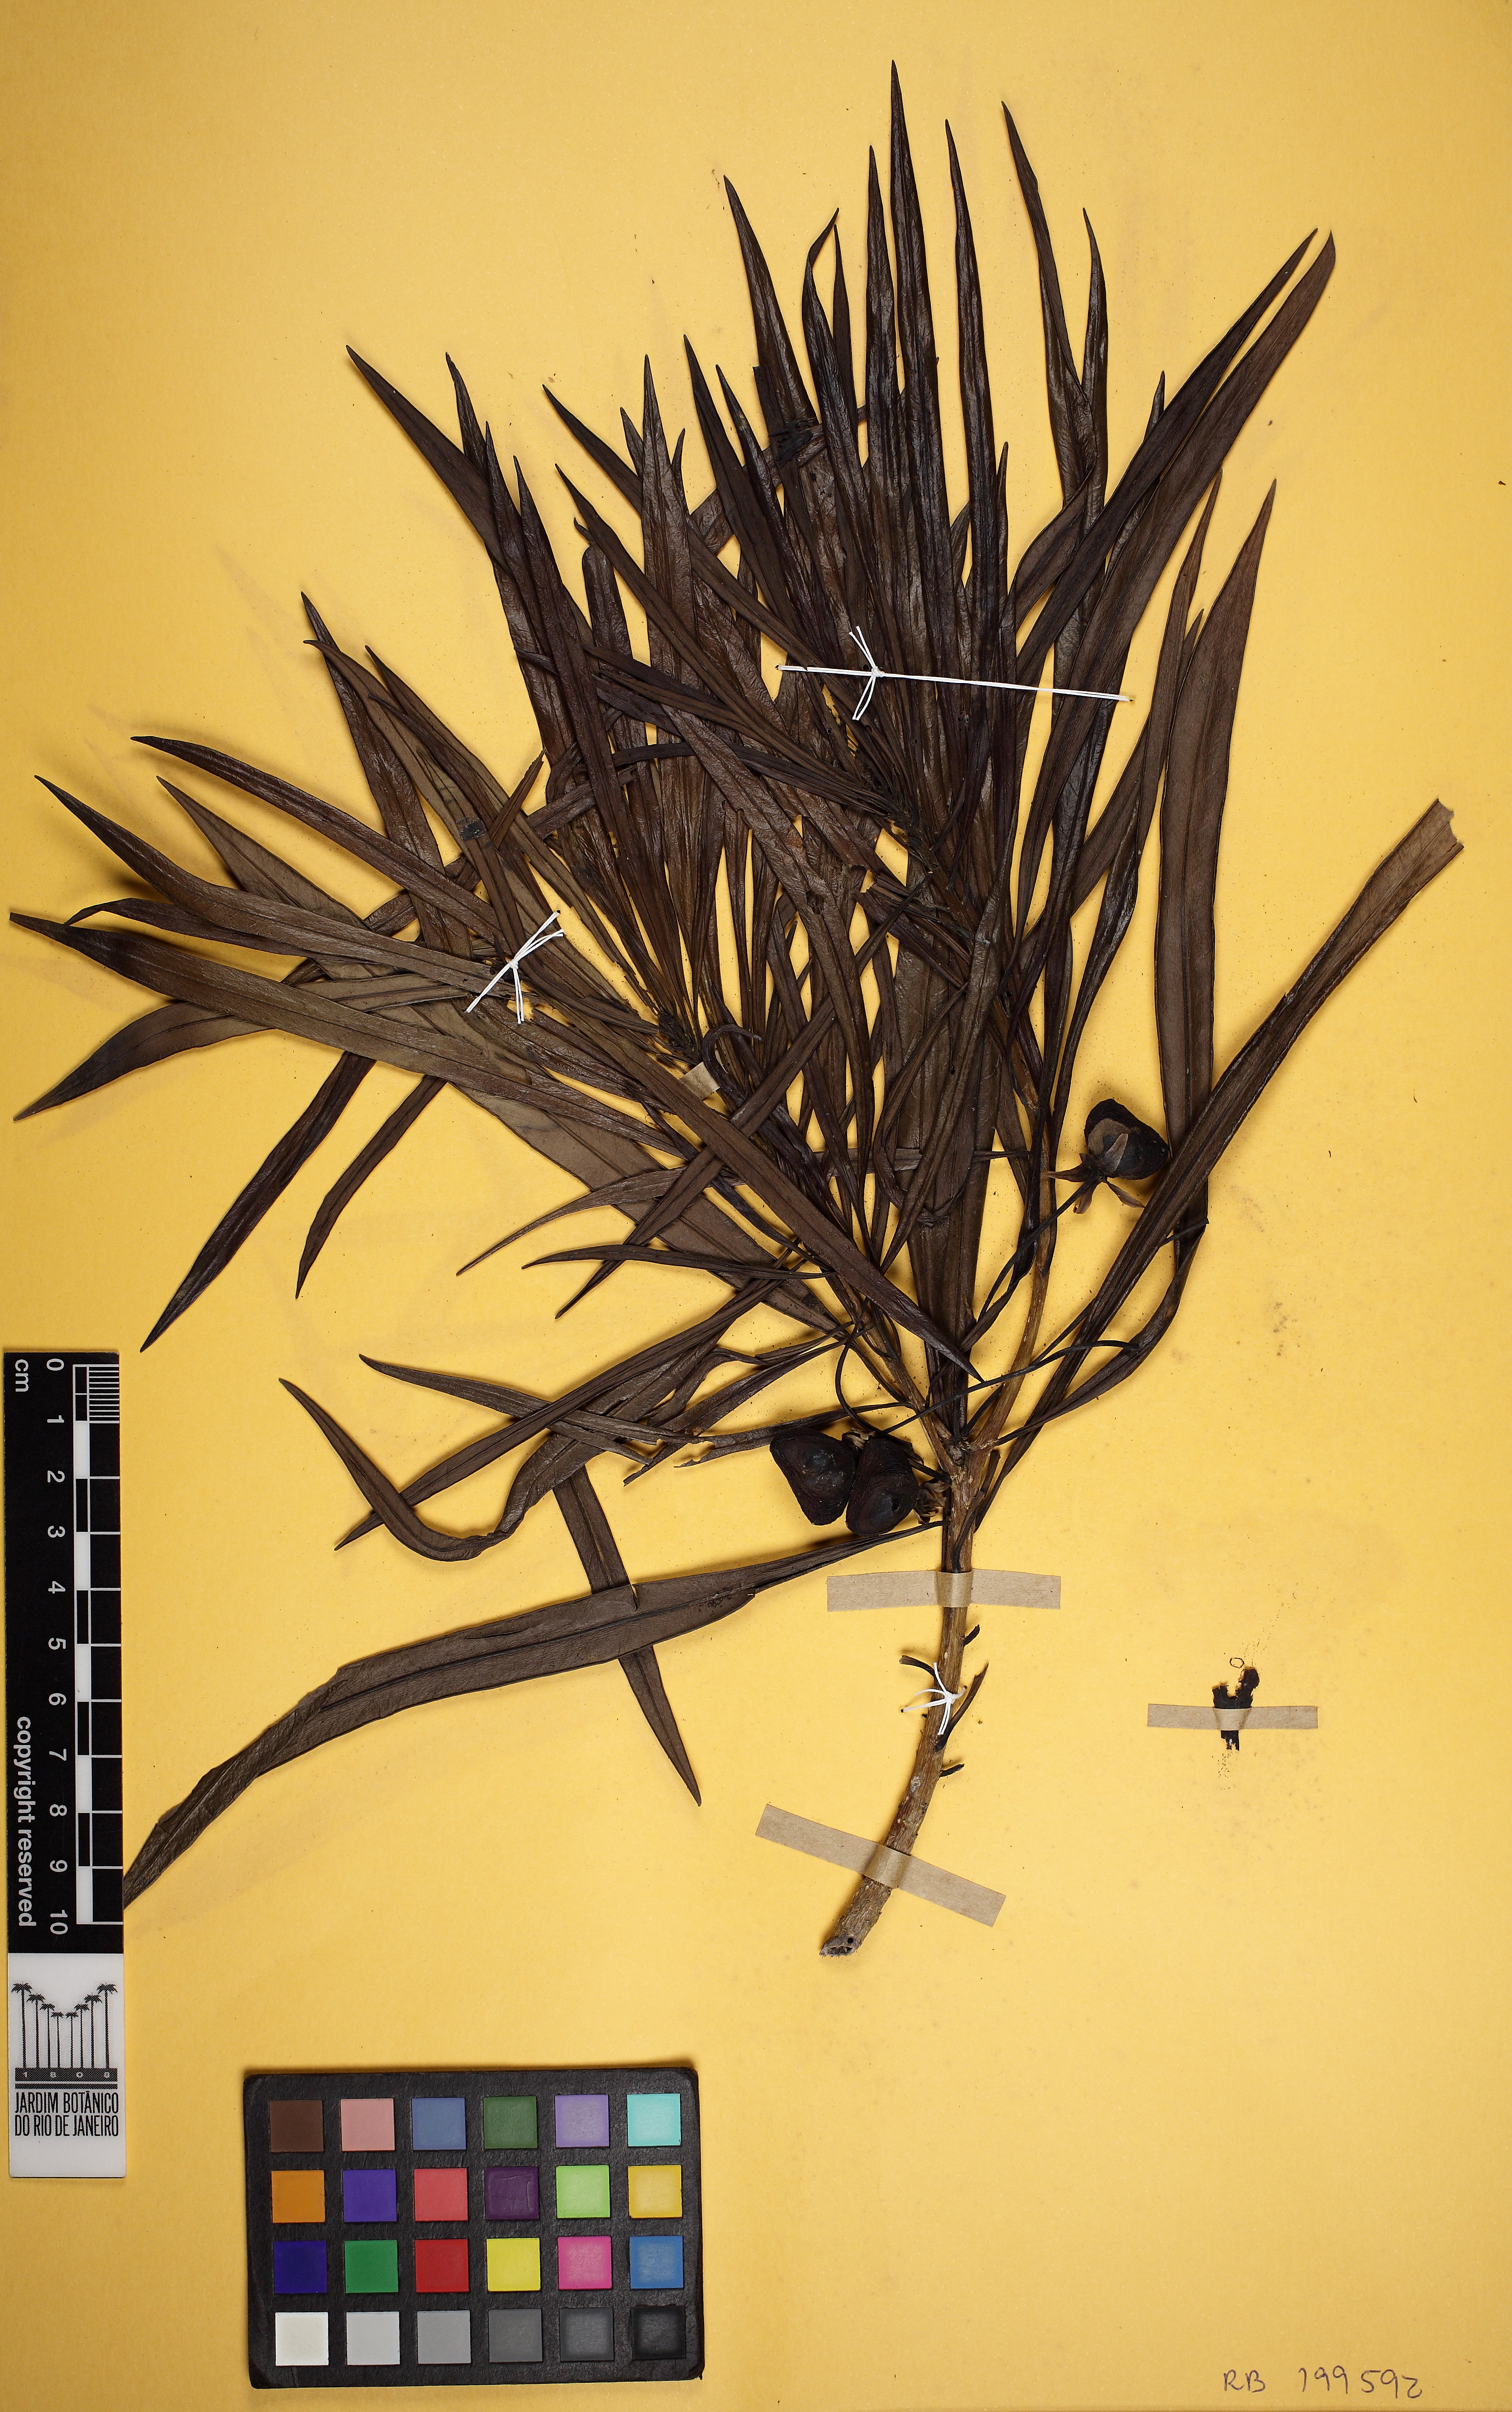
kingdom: Plantae
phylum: Tracheophyta
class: Magnoliopsida
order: Gentianales
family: Apocynaceae
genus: Thevetia
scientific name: Thevetia
